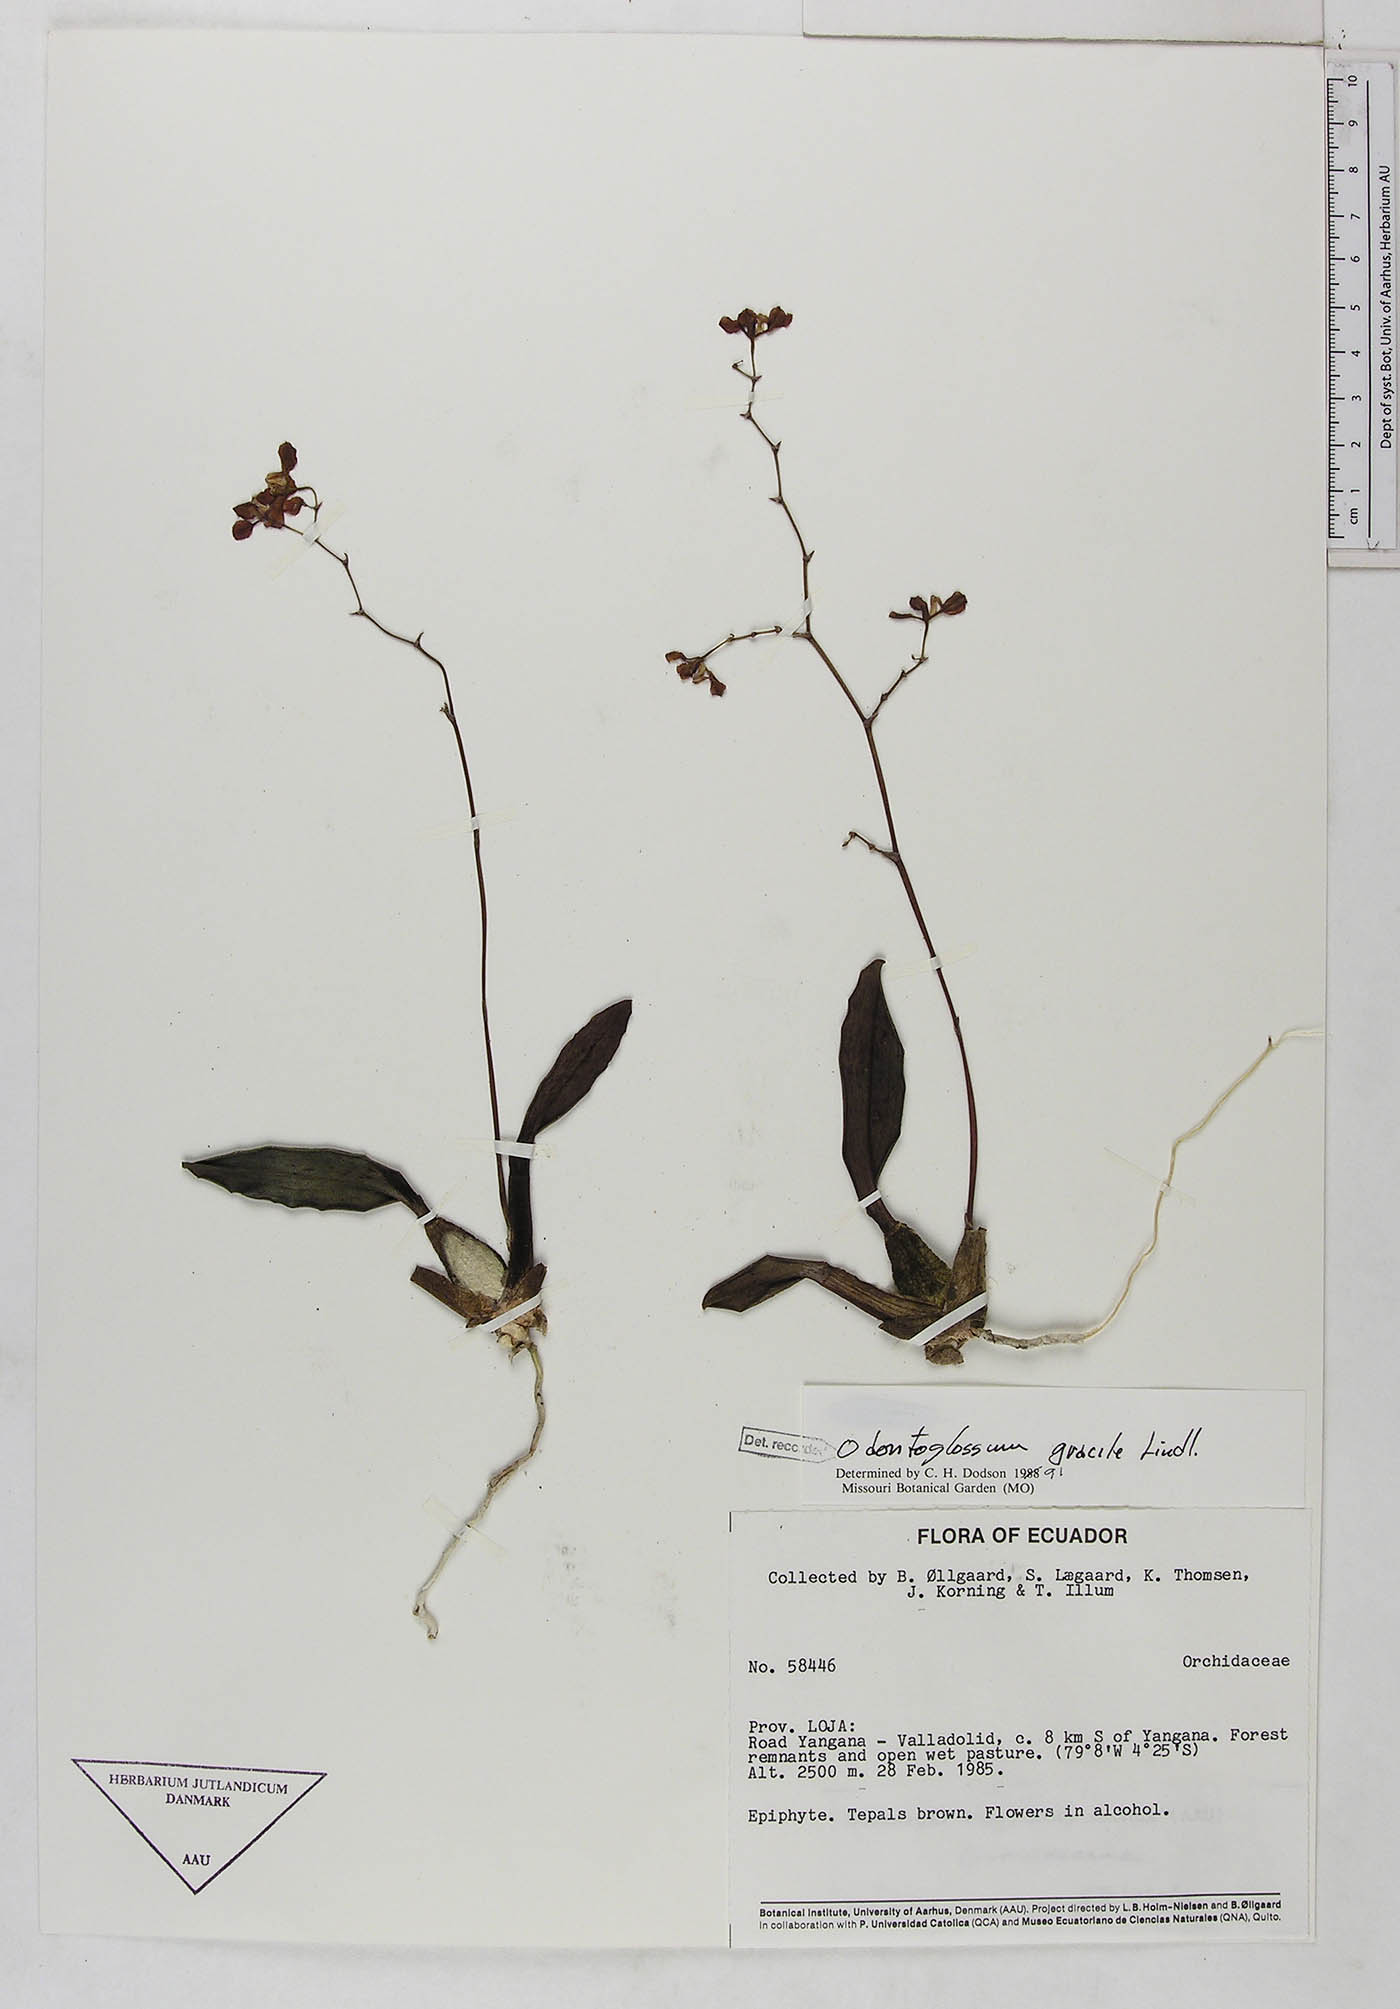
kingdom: Plantae
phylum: Tracheophyta
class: Liliopsida
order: Asparagales
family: Orchidaceae
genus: Cyrtochilum
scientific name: Cyrtochilum gracile
